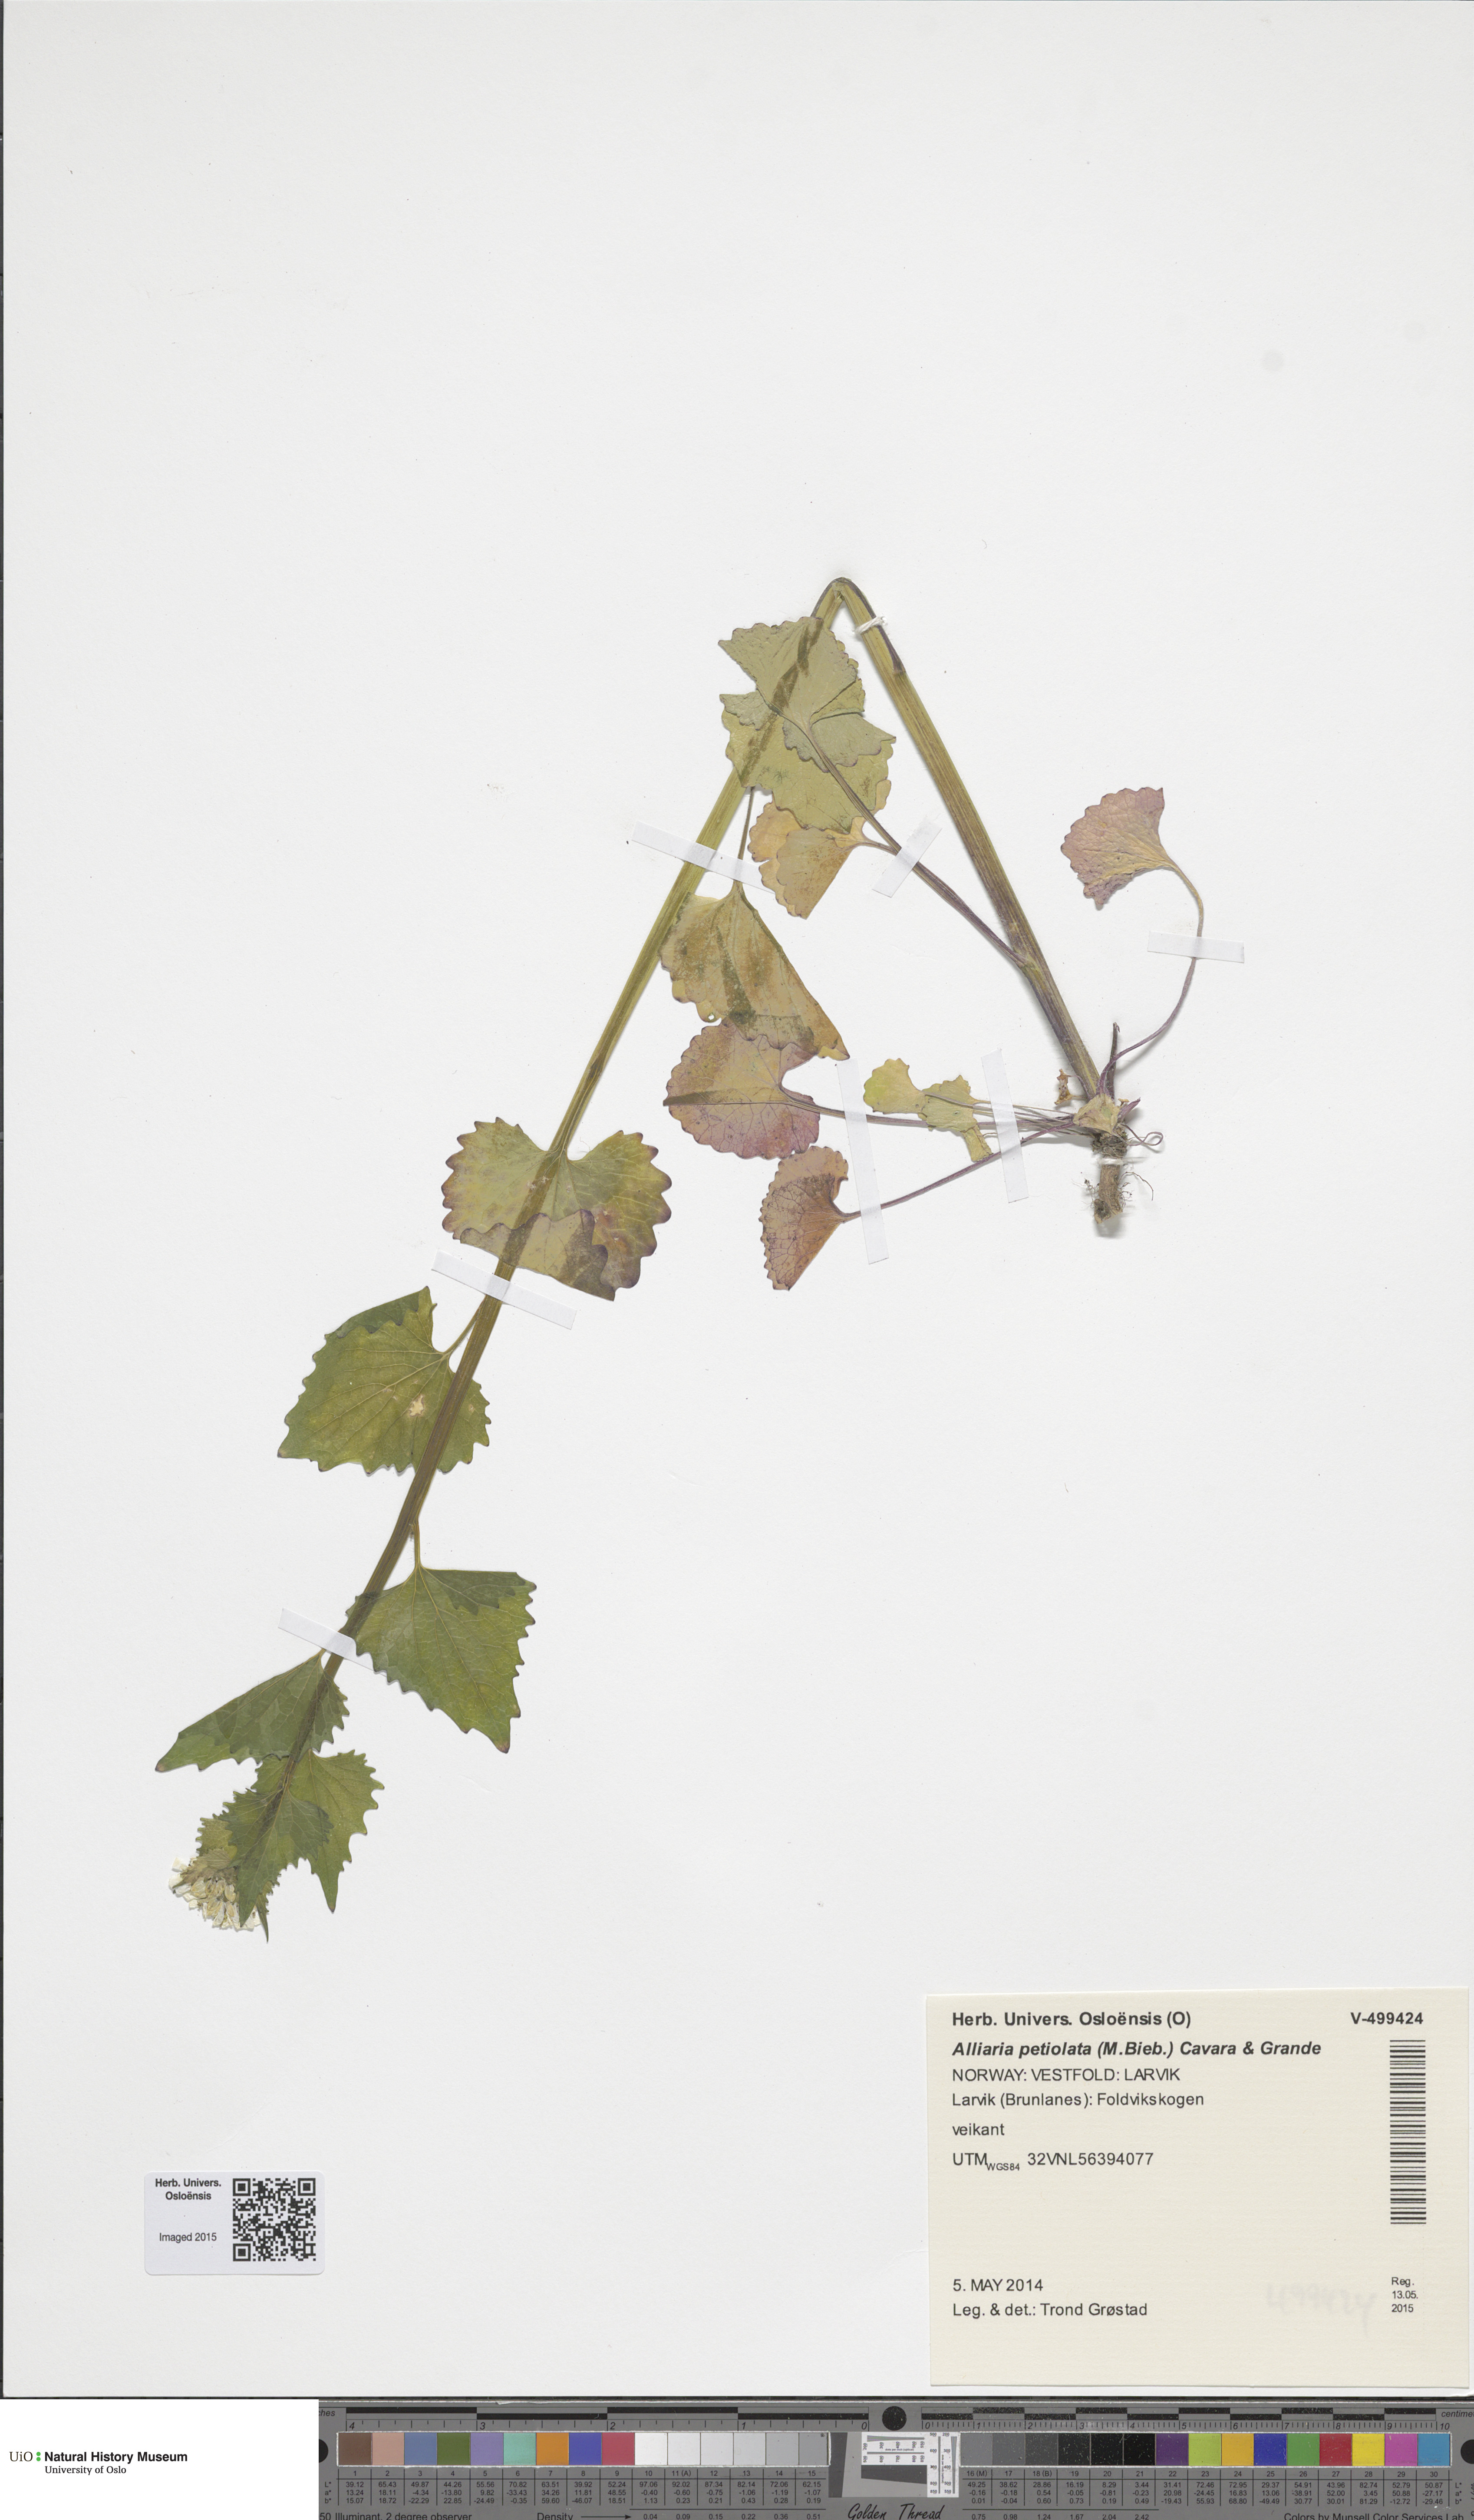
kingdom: Plantae
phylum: Tracheophyta
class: Magnoliopsida
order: Brassicales
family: Brassicaceae
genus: Alliaria
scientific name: Alliaria petiolata
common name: Garlic mustard
